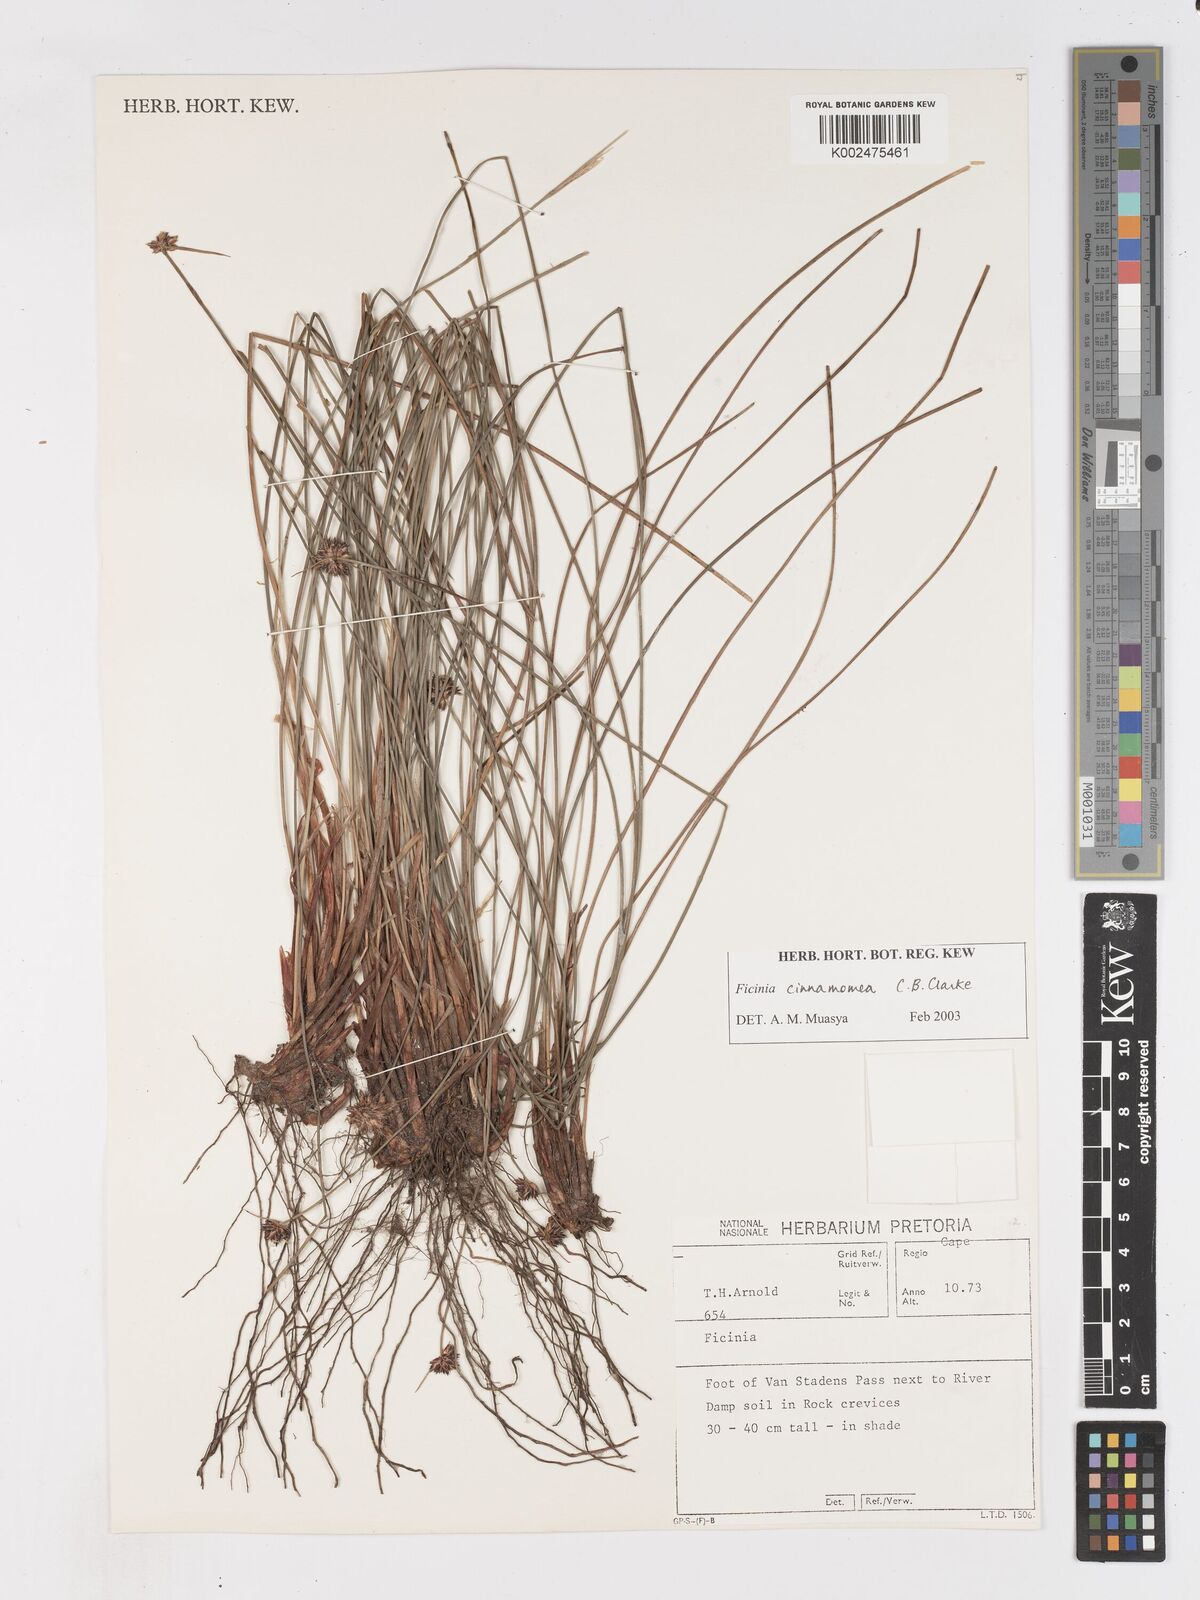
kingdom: Plantae
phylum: Tracheophyta
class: Liliopsida
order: Poales
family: Cyperaceae
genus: Ficinia
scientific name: Ficinia cinnamomea
